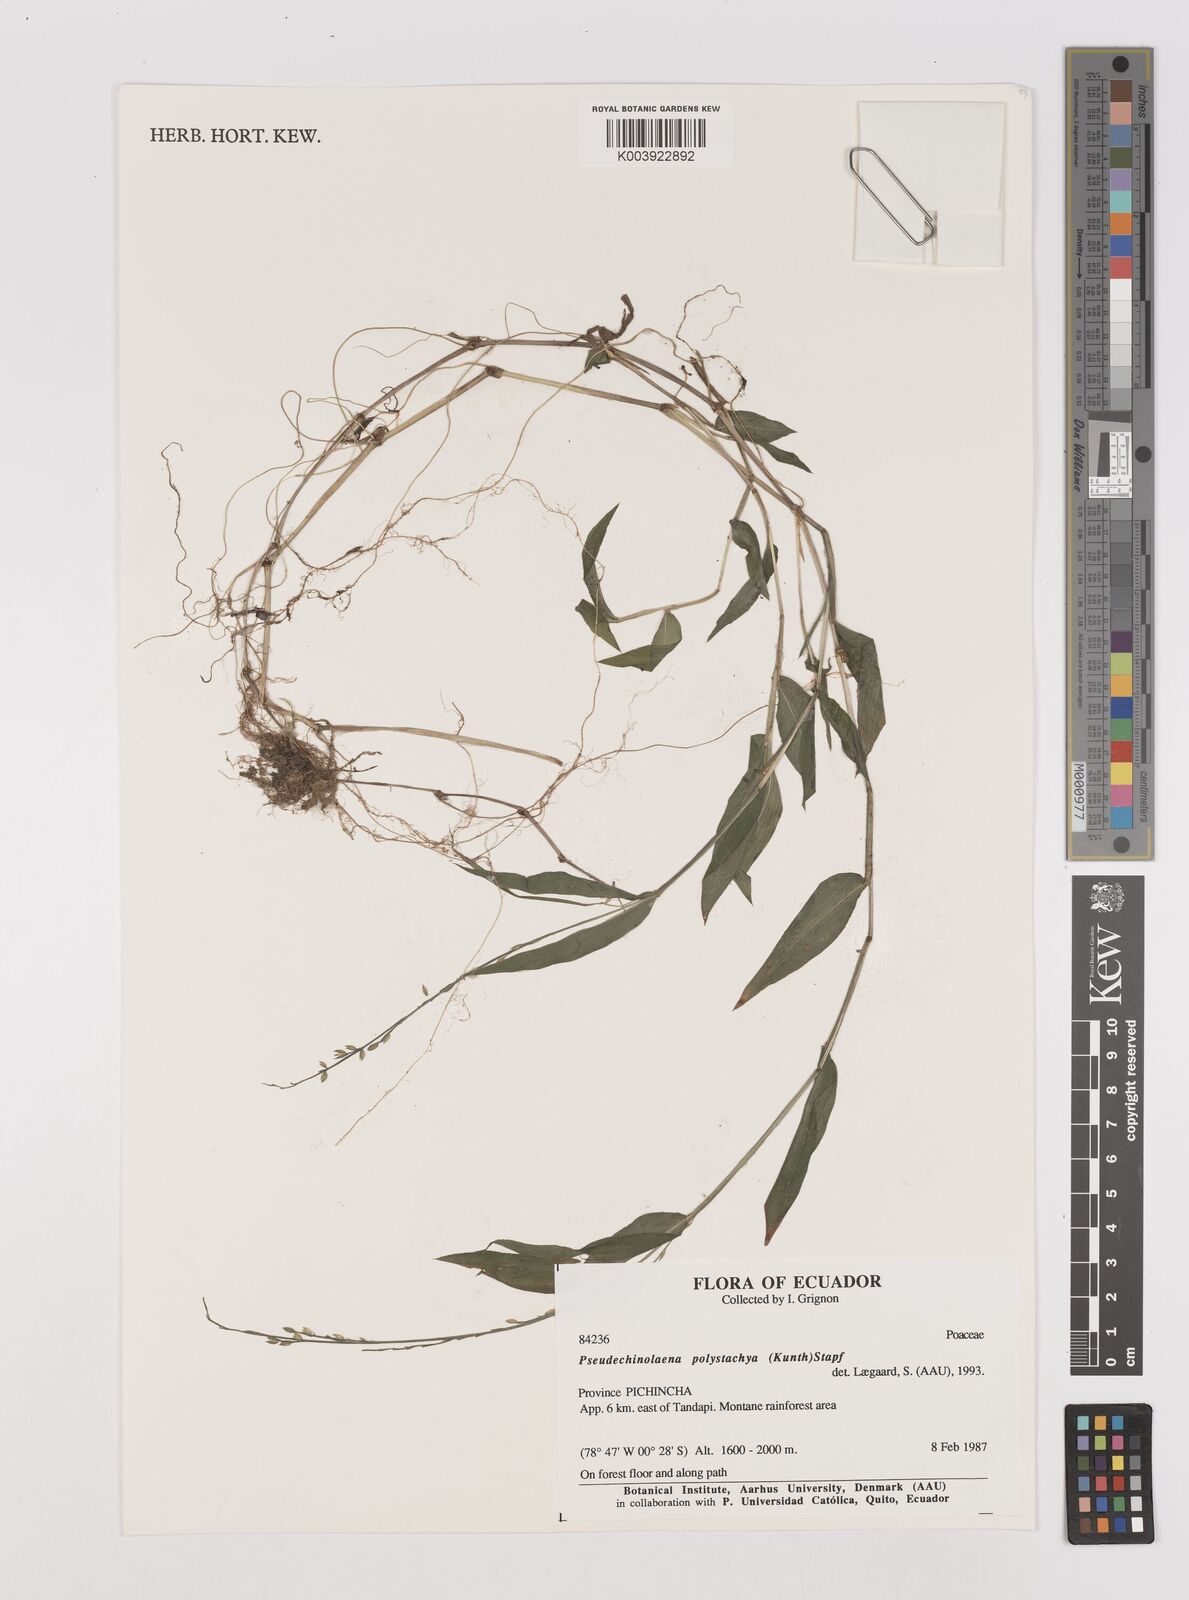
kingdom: Plantae
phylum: Tracheophyta
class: Liliopsida
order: Poales
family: Poaceae
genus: Pseudechinolaena
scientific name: Pseudechinolaena polystachya
